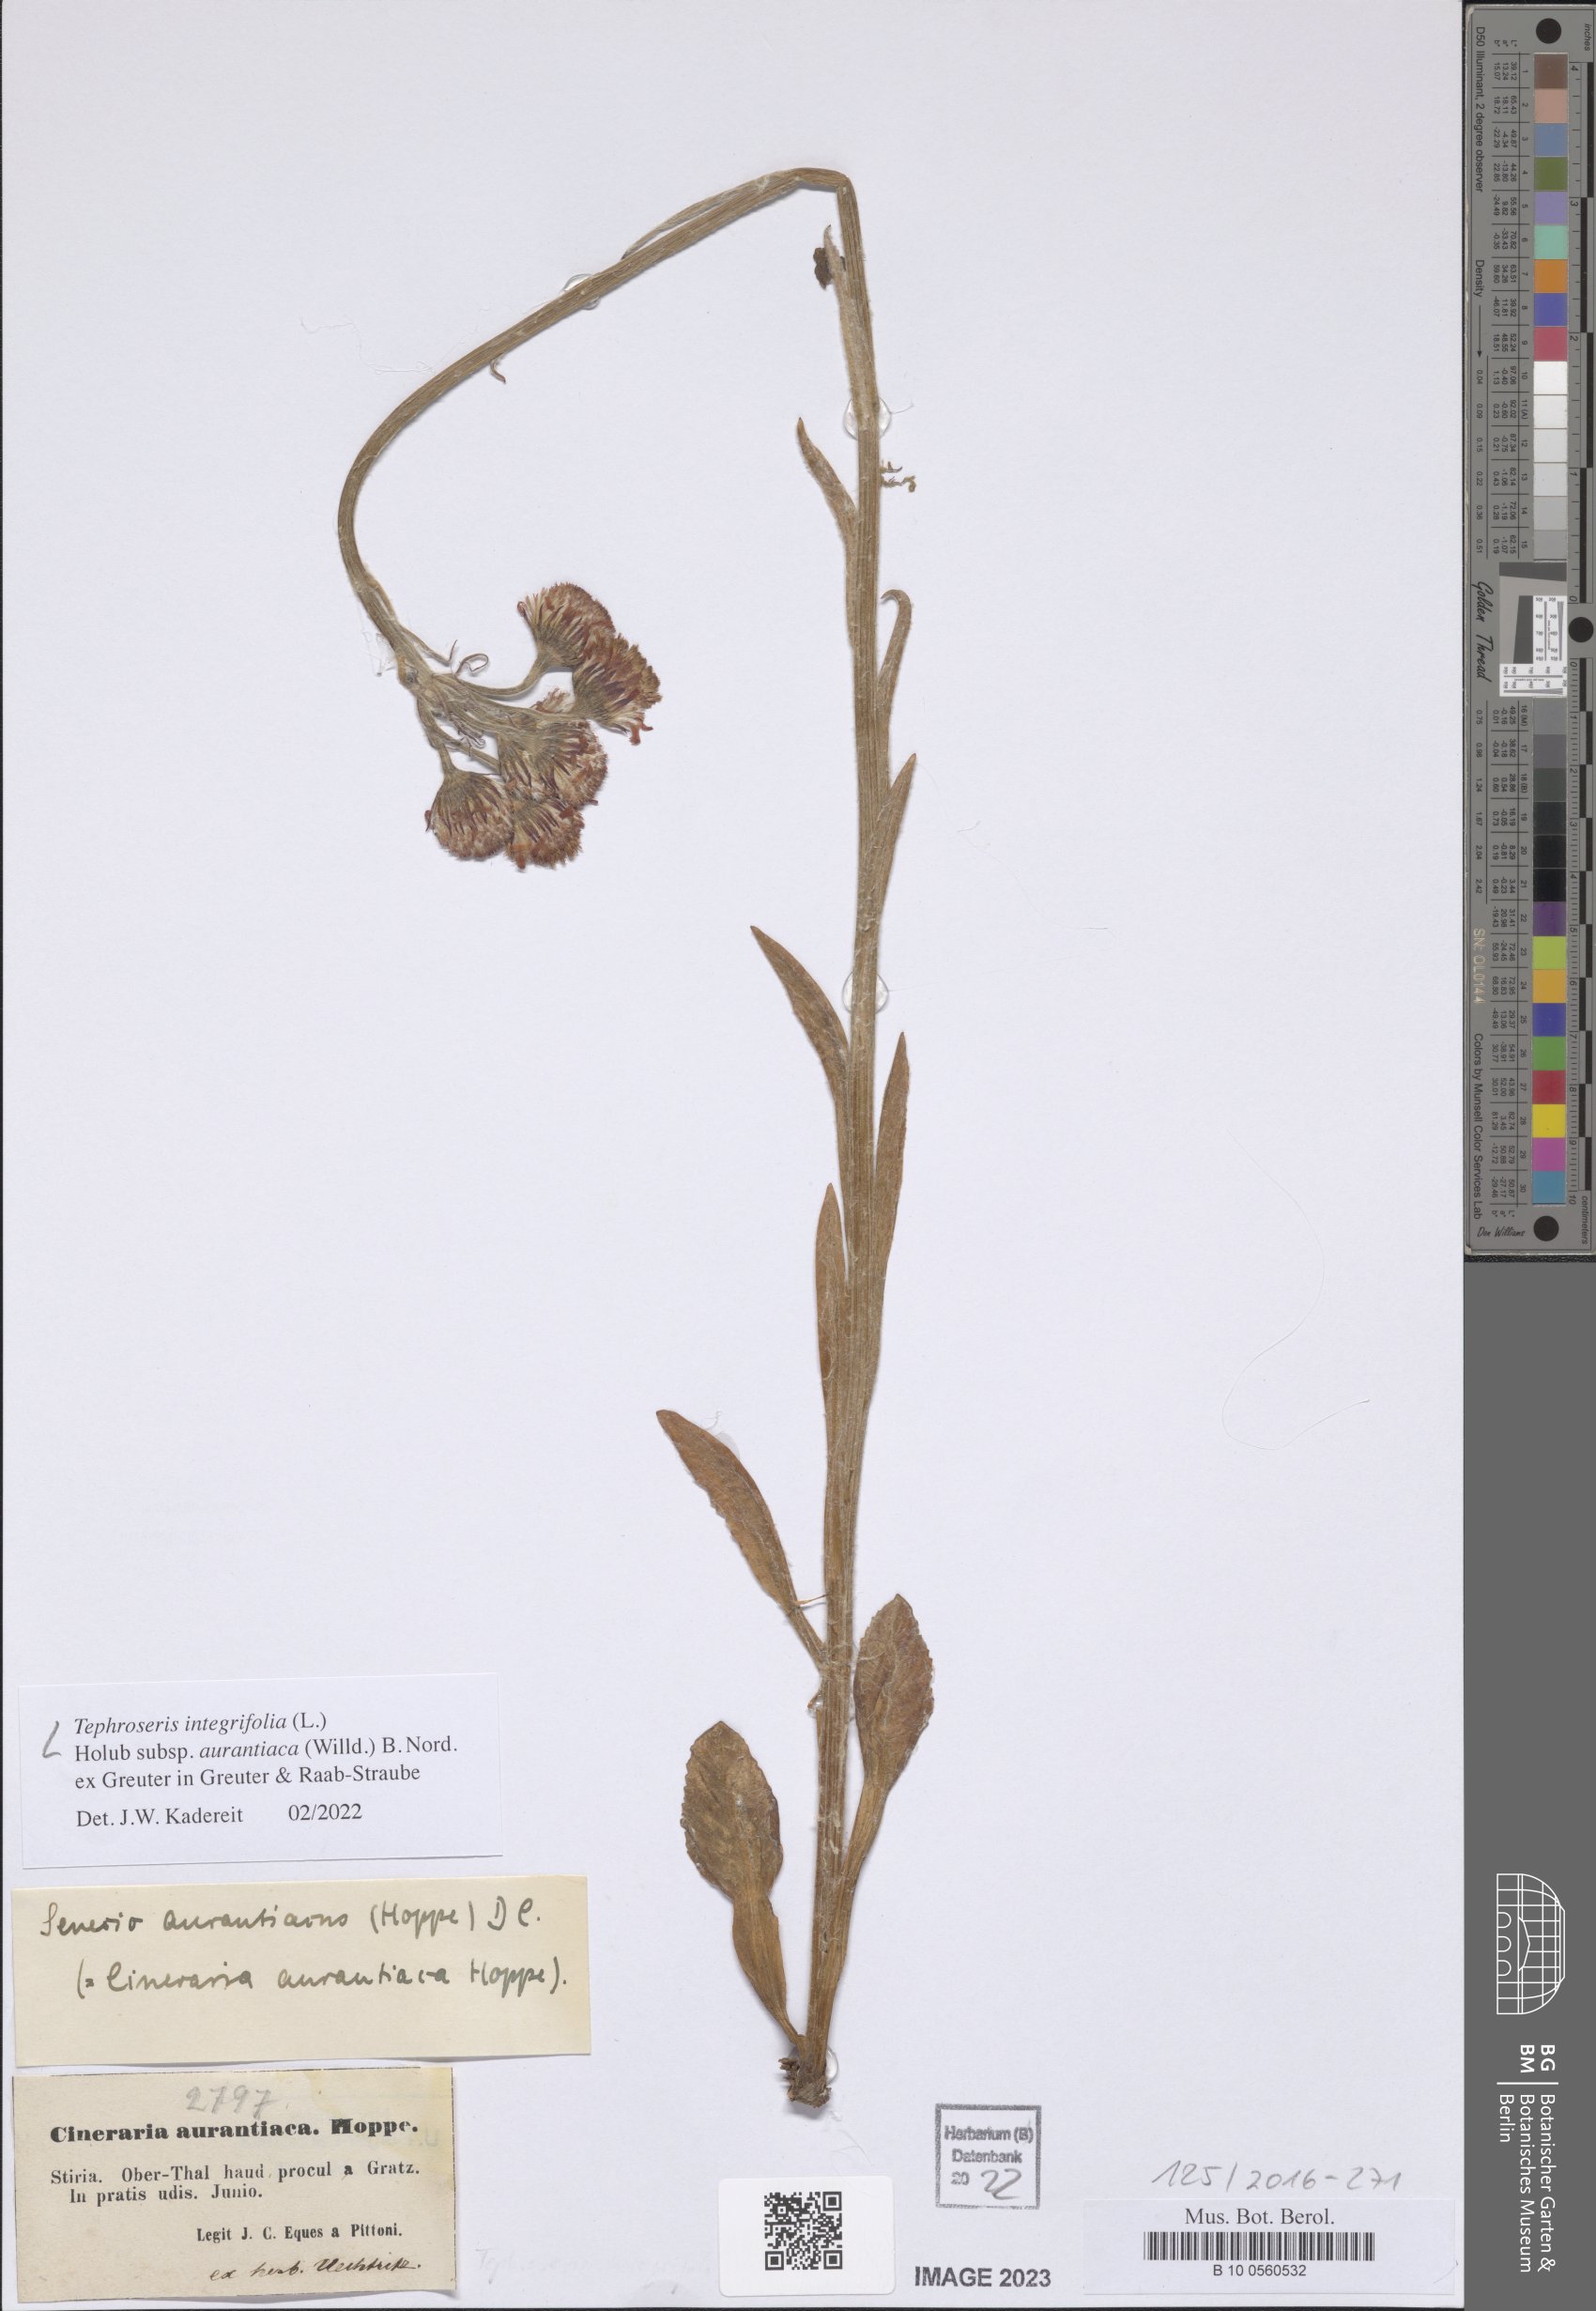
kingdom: Plantae
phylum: Tracheophyta
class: Magnoliopsida
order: Asterales
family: Asteraceae
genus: Tephroseris
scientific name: Tephroseris aurantiaca
